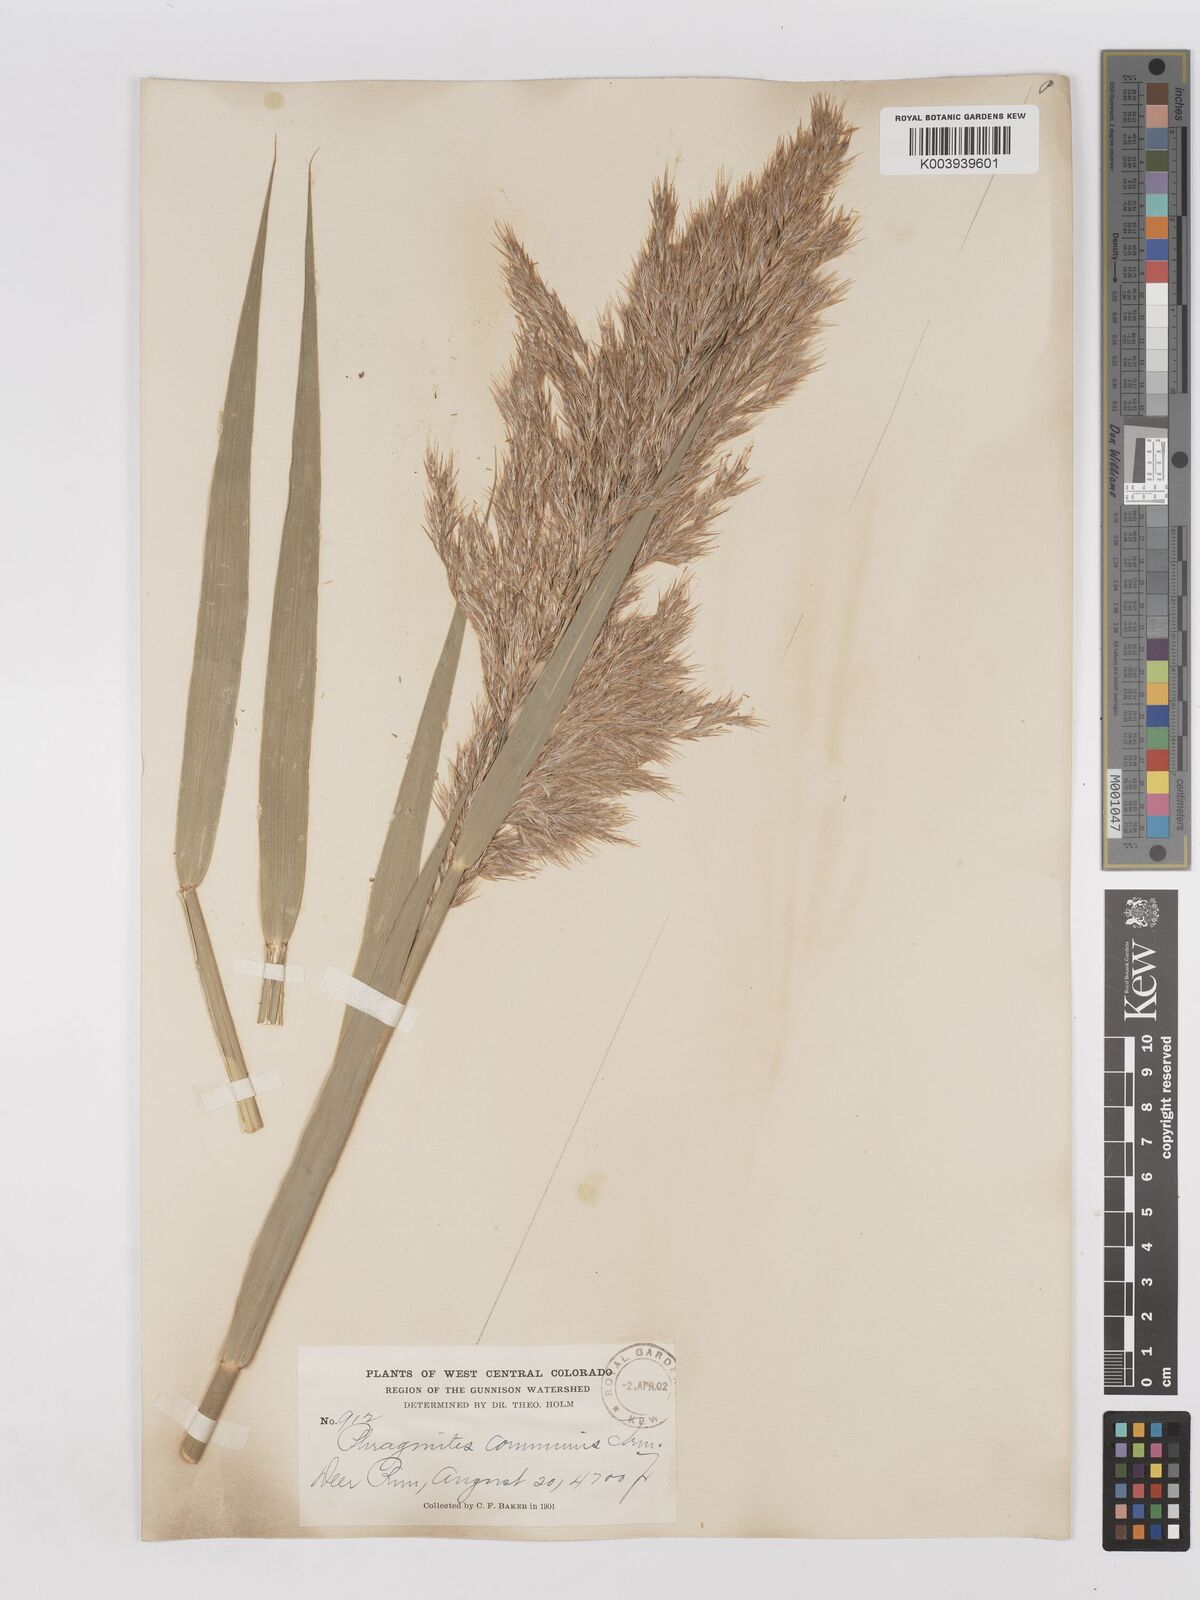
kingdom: Plantae
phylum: Tracheophyta
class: Liliopsida
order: Poales
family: Poaceae
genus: Phragmites
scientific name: Phragmites australis
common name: Common reed
